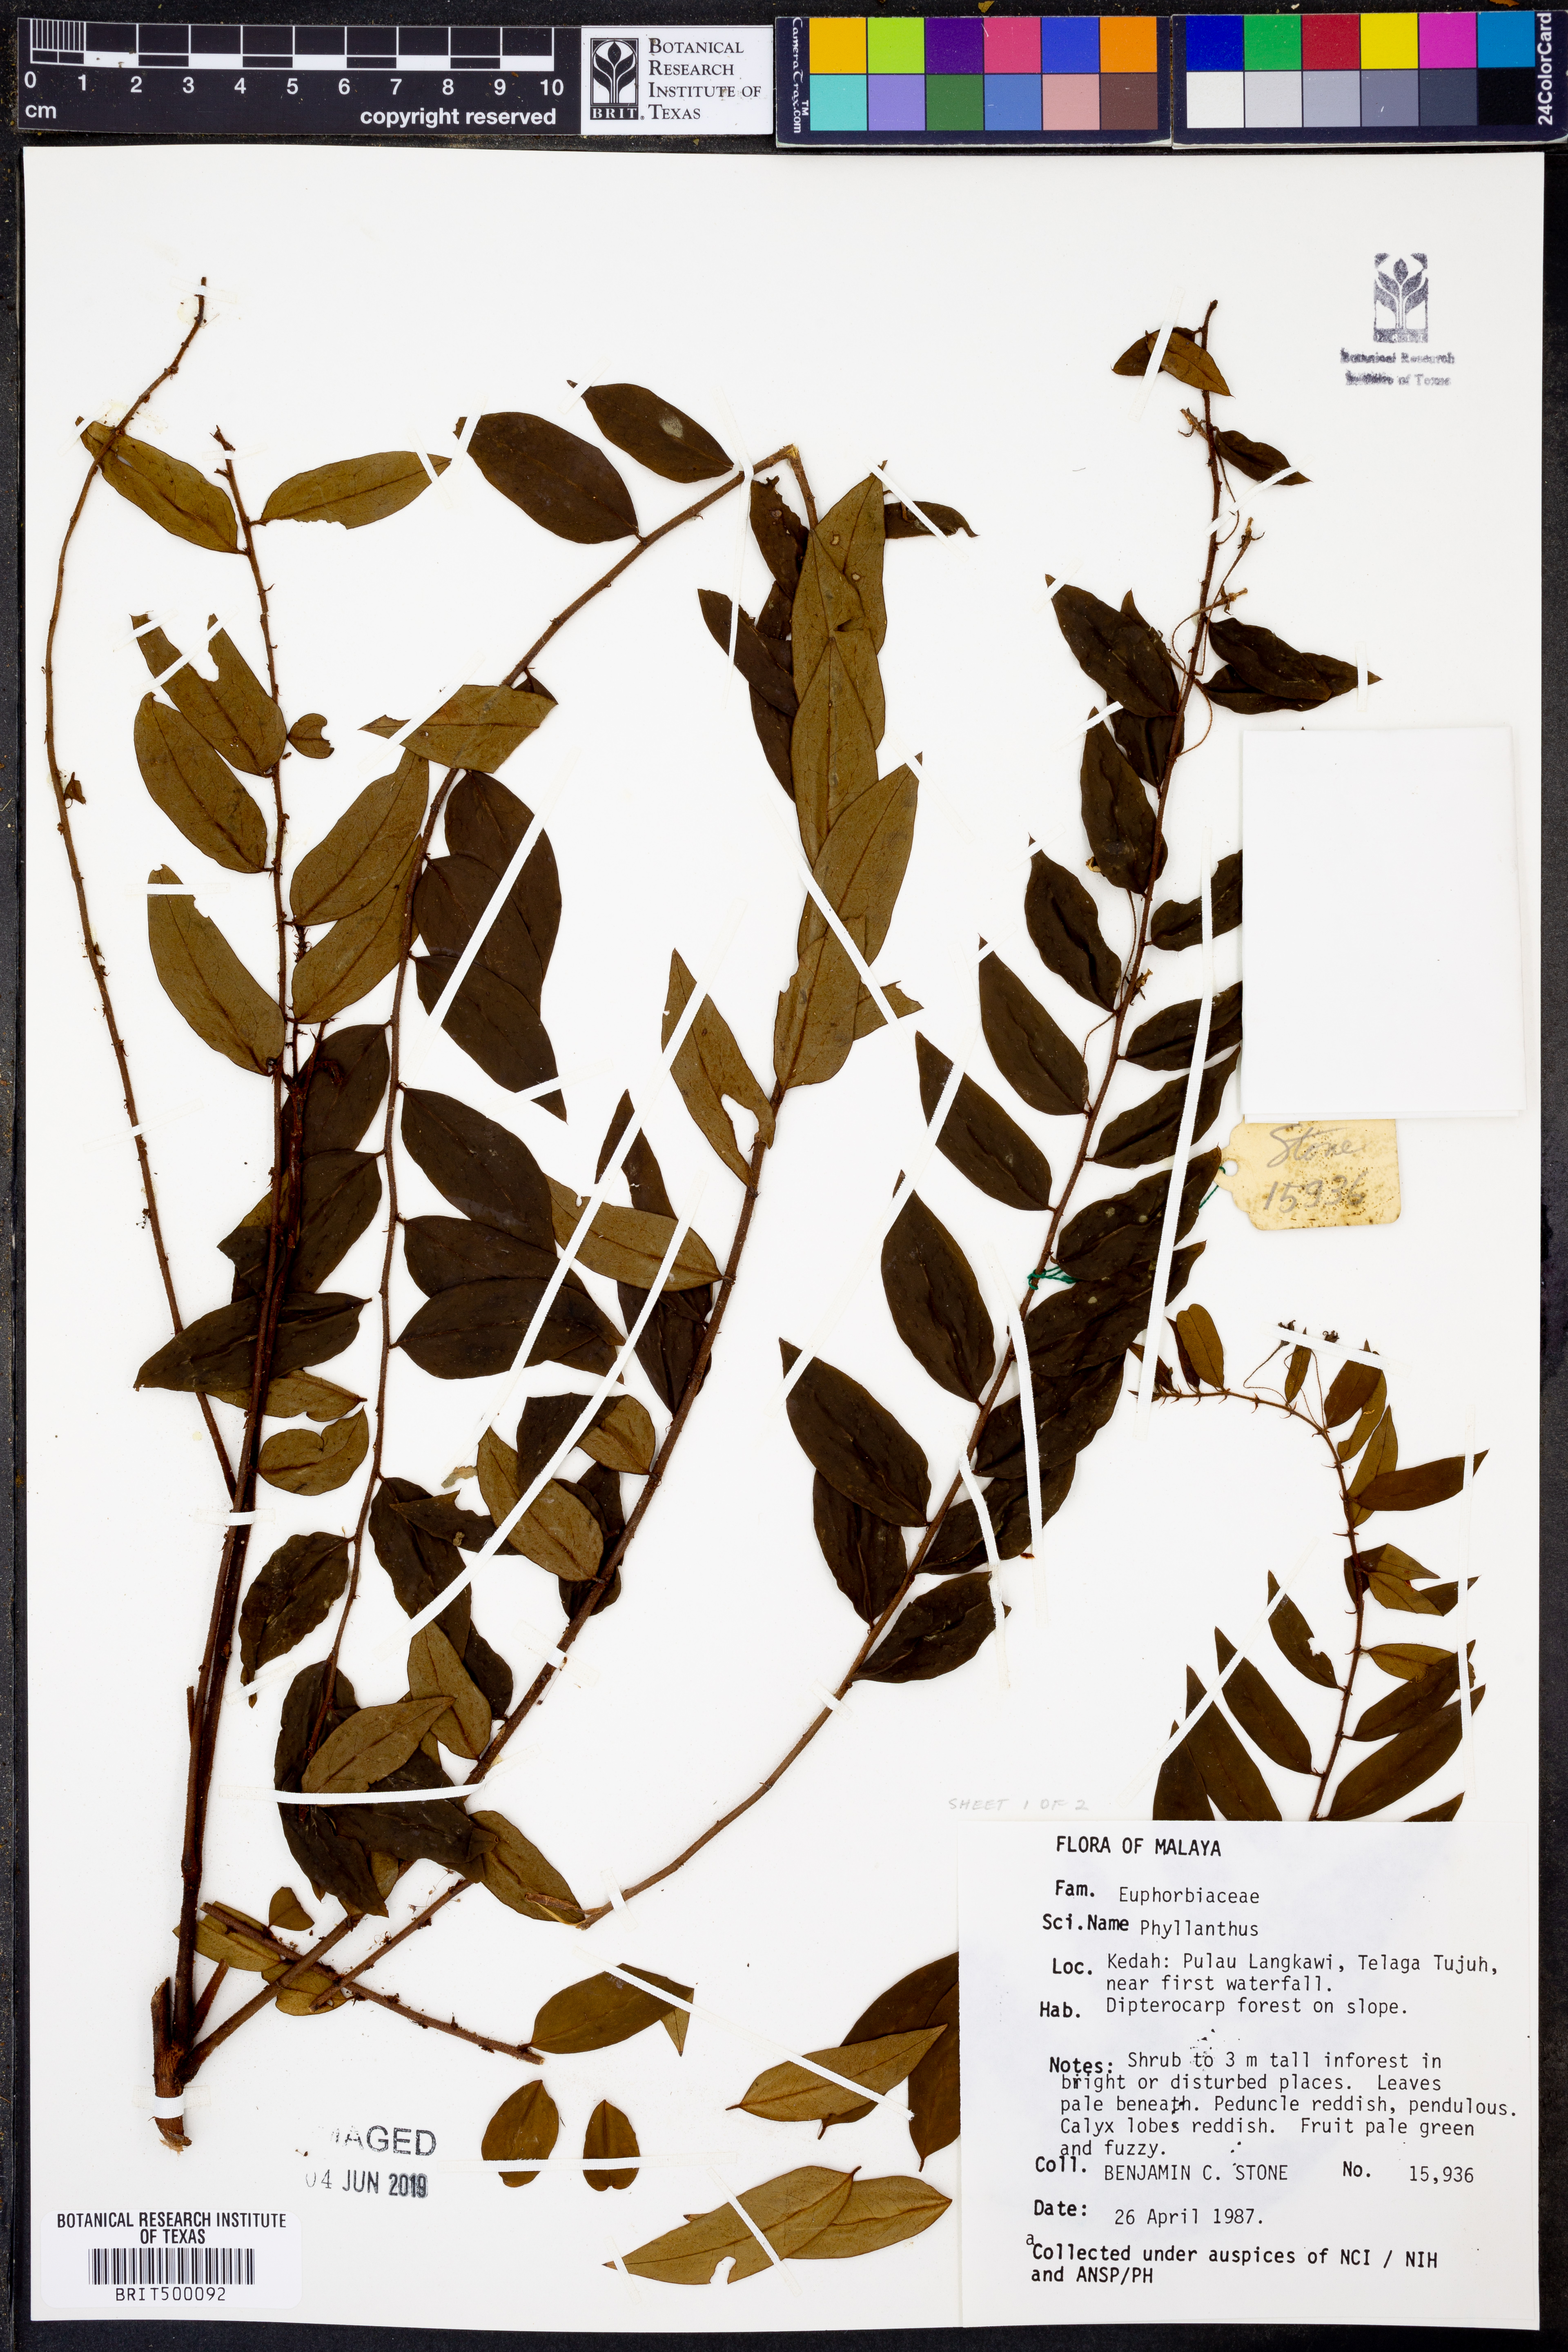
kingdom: Plantae
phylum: Tracheophyta
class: Magnoliopsida
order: Malpighiales
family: Phyllanthaceae
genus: Phyllanthus
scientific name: Phyllanthus
